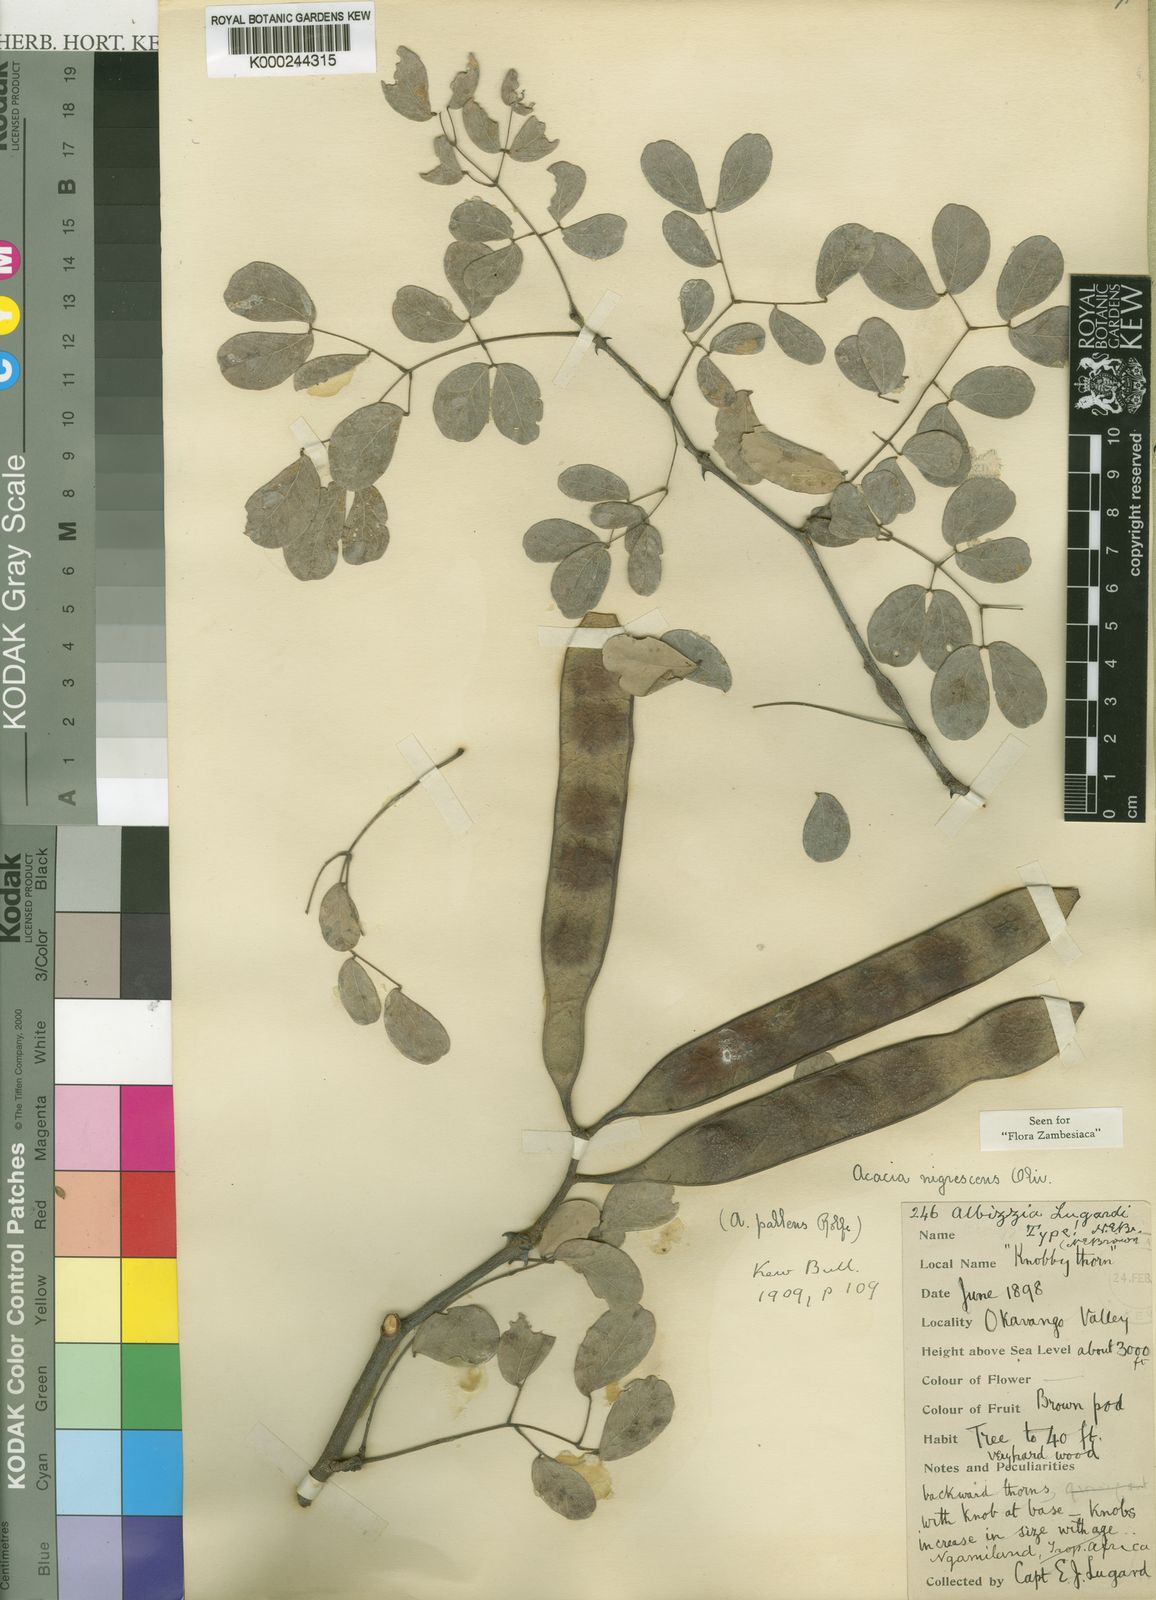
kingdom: Plantae
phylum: Tracheophyta
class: Magnoliopsida
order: Fabales
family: Fabaceae
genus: Senegalia
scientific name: Senegalia nigrescens
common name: Knobthorn
